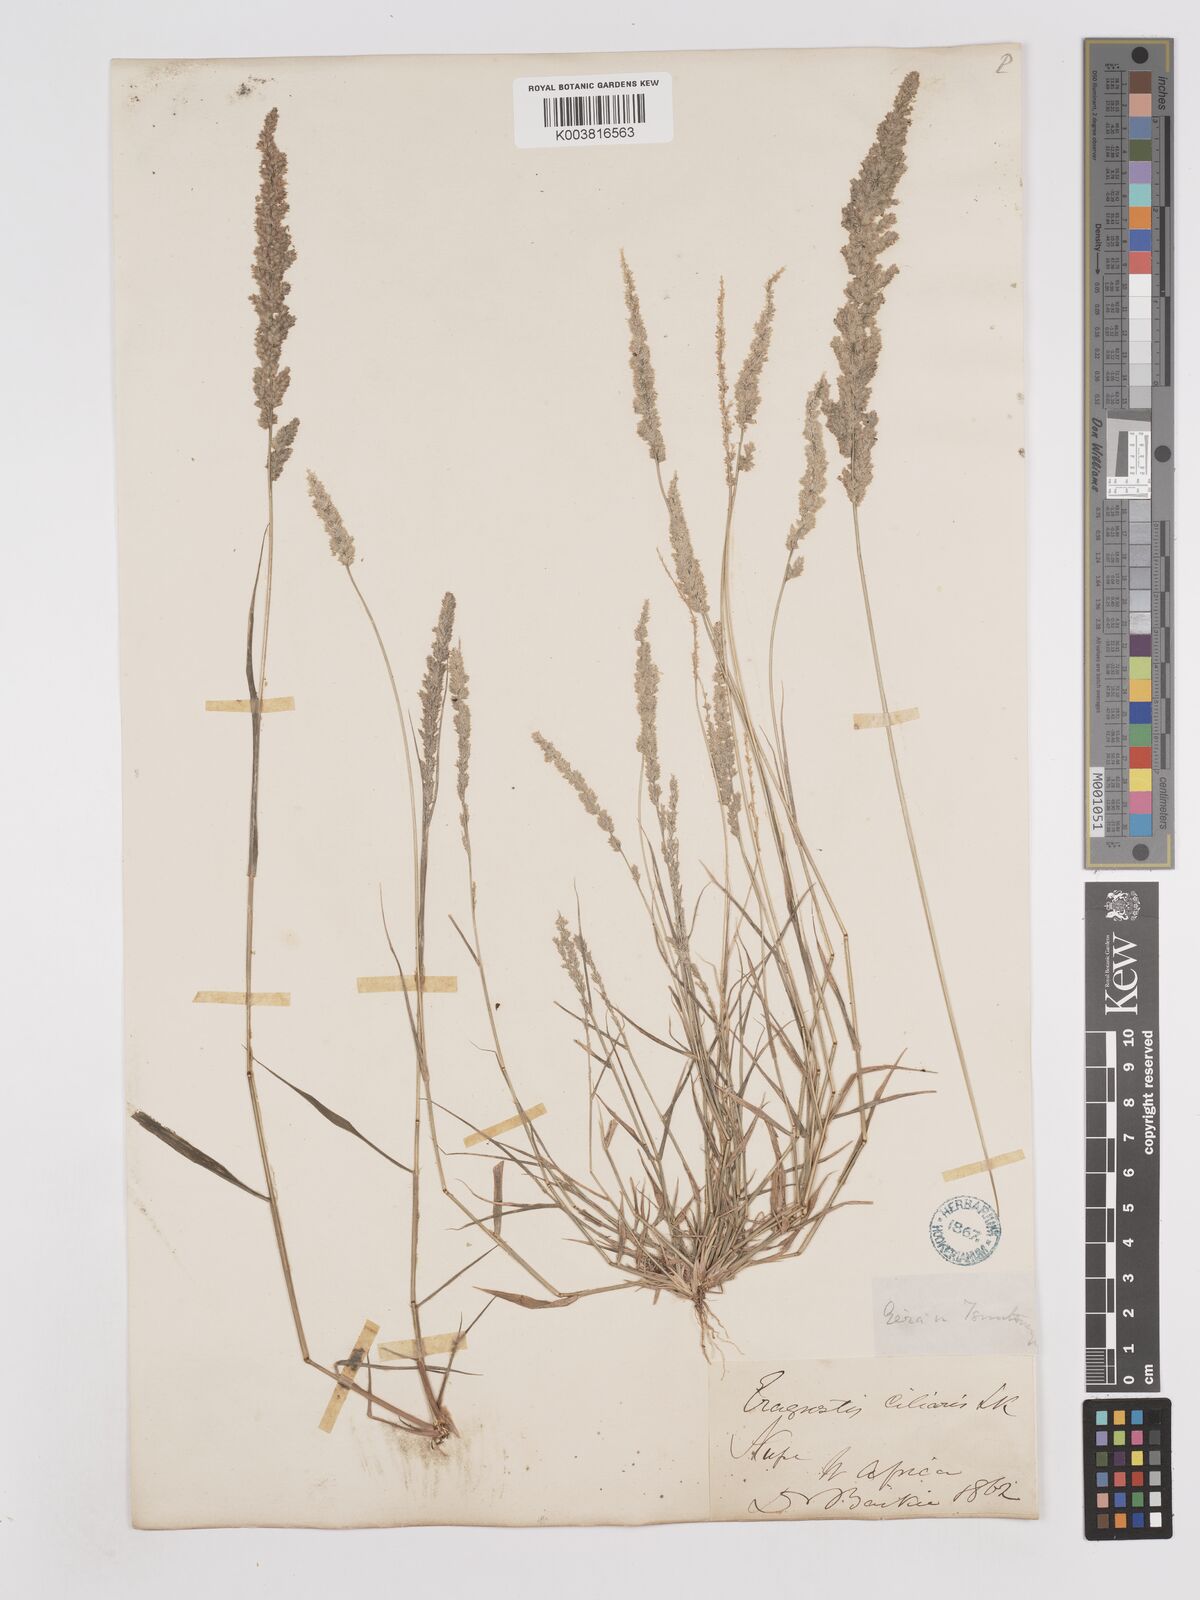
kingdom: Plantae
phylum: Tracheophyta
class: Liliopsida
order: Poales
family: Poaceae
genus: Eragrostis
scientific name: Eragrostis ciliaris
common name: Gophertail lovegrass
